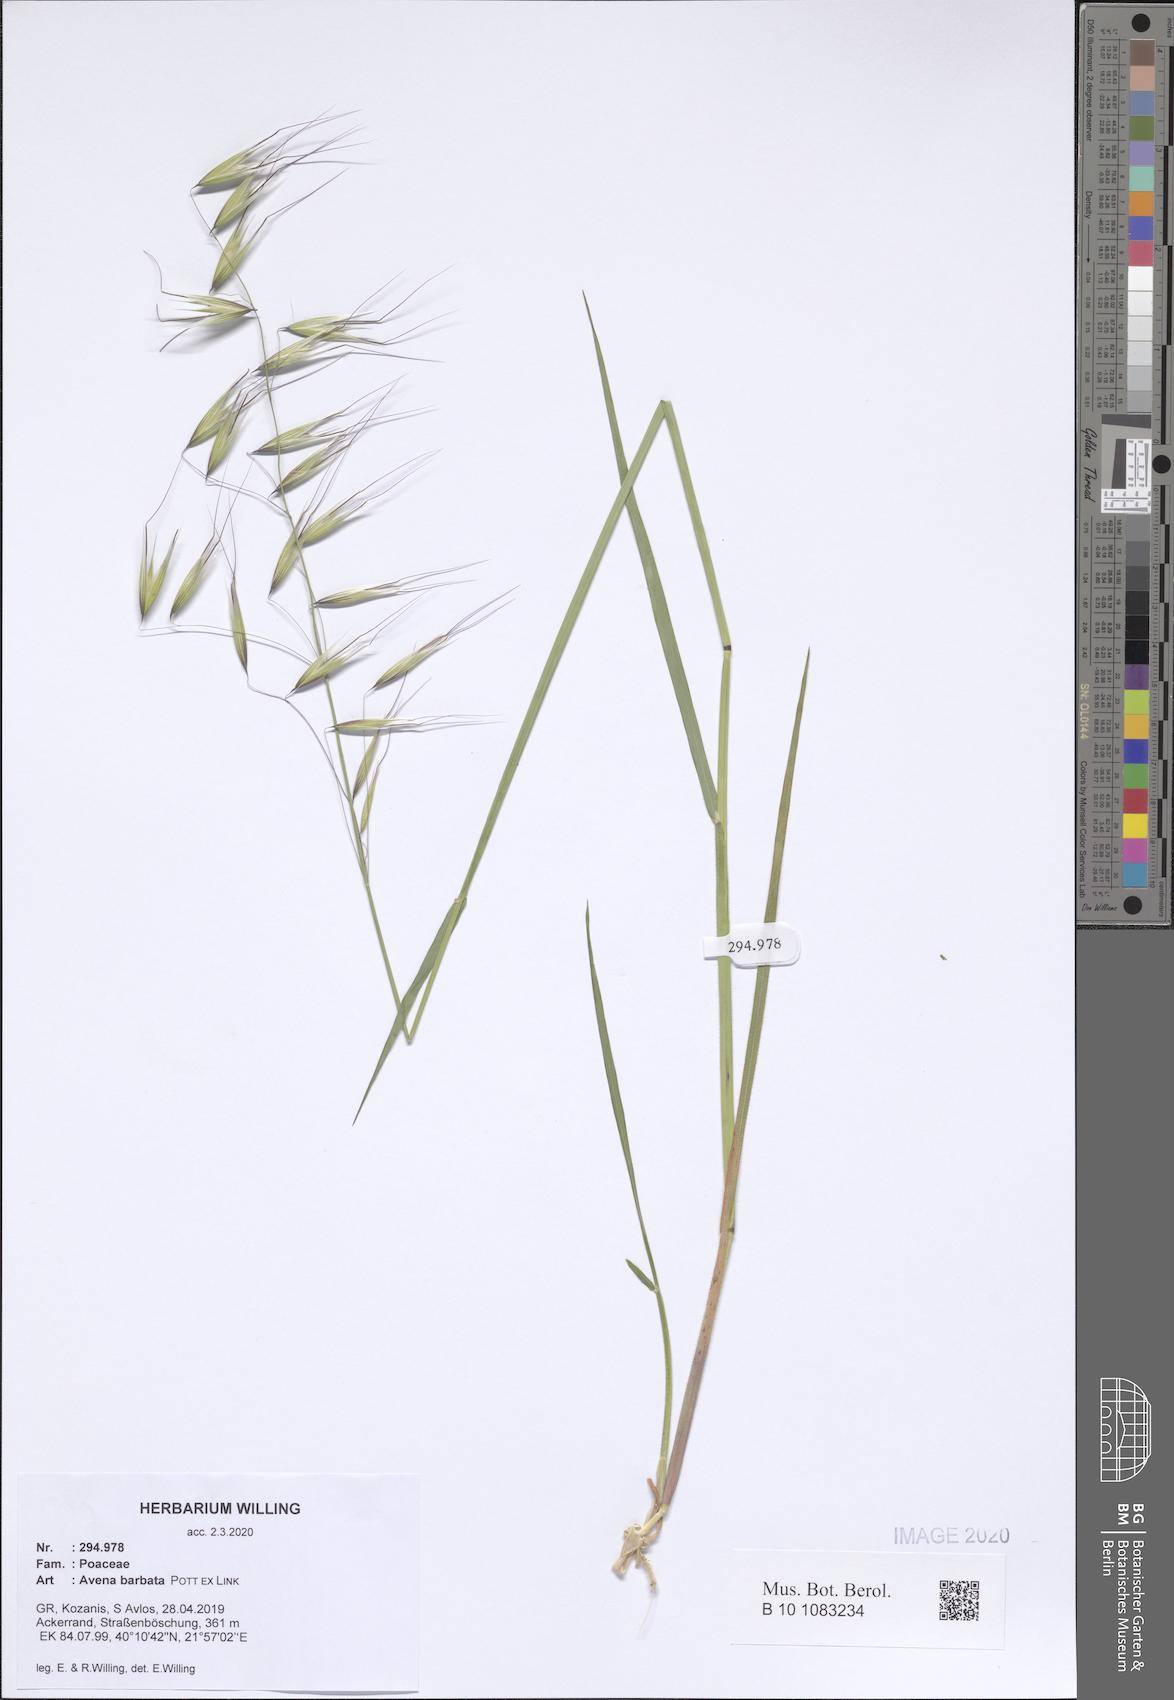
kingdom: Plantae
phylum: Tracheophyta
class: Liliopsida
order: Poales
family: Poaceae
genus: Avena
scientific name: Avena barbata
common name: Slender oat
